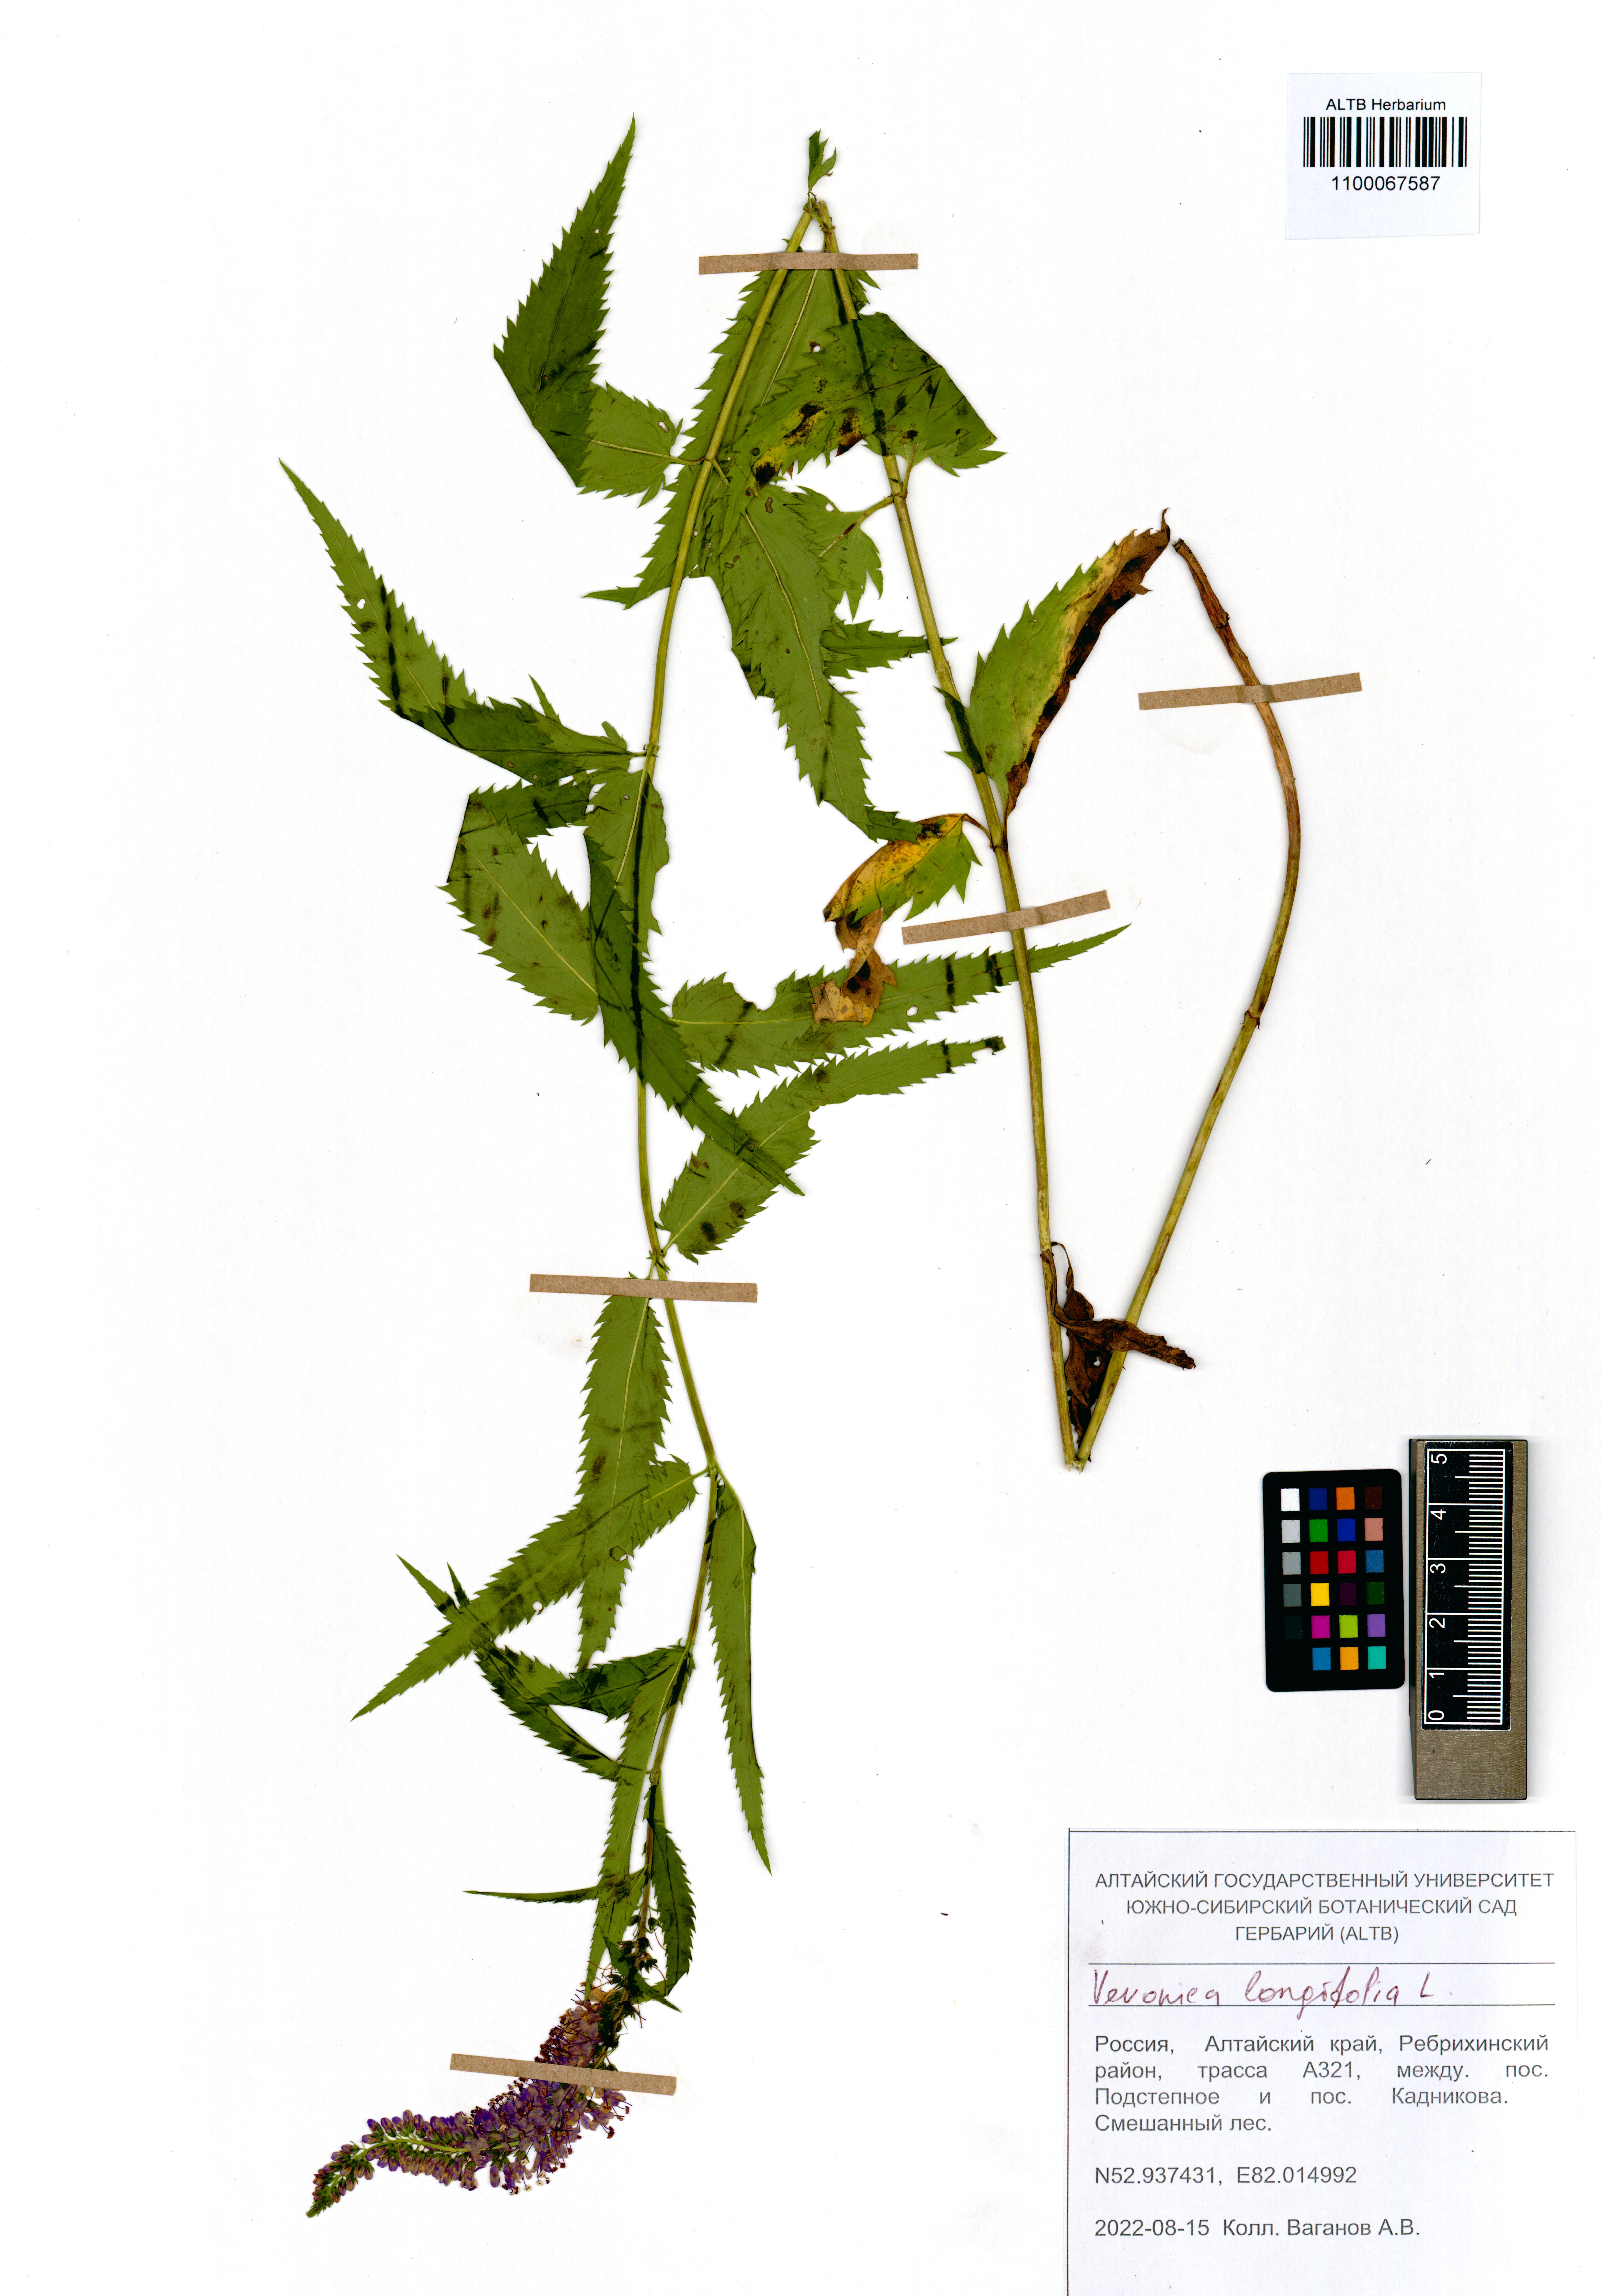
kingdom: Plantae
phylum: Tracheophyta
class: Magnoliopsida
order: Lamiales
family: Plantaginaceae
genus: Veronica
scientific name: Veronica longifolia
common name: Garden speedwell
